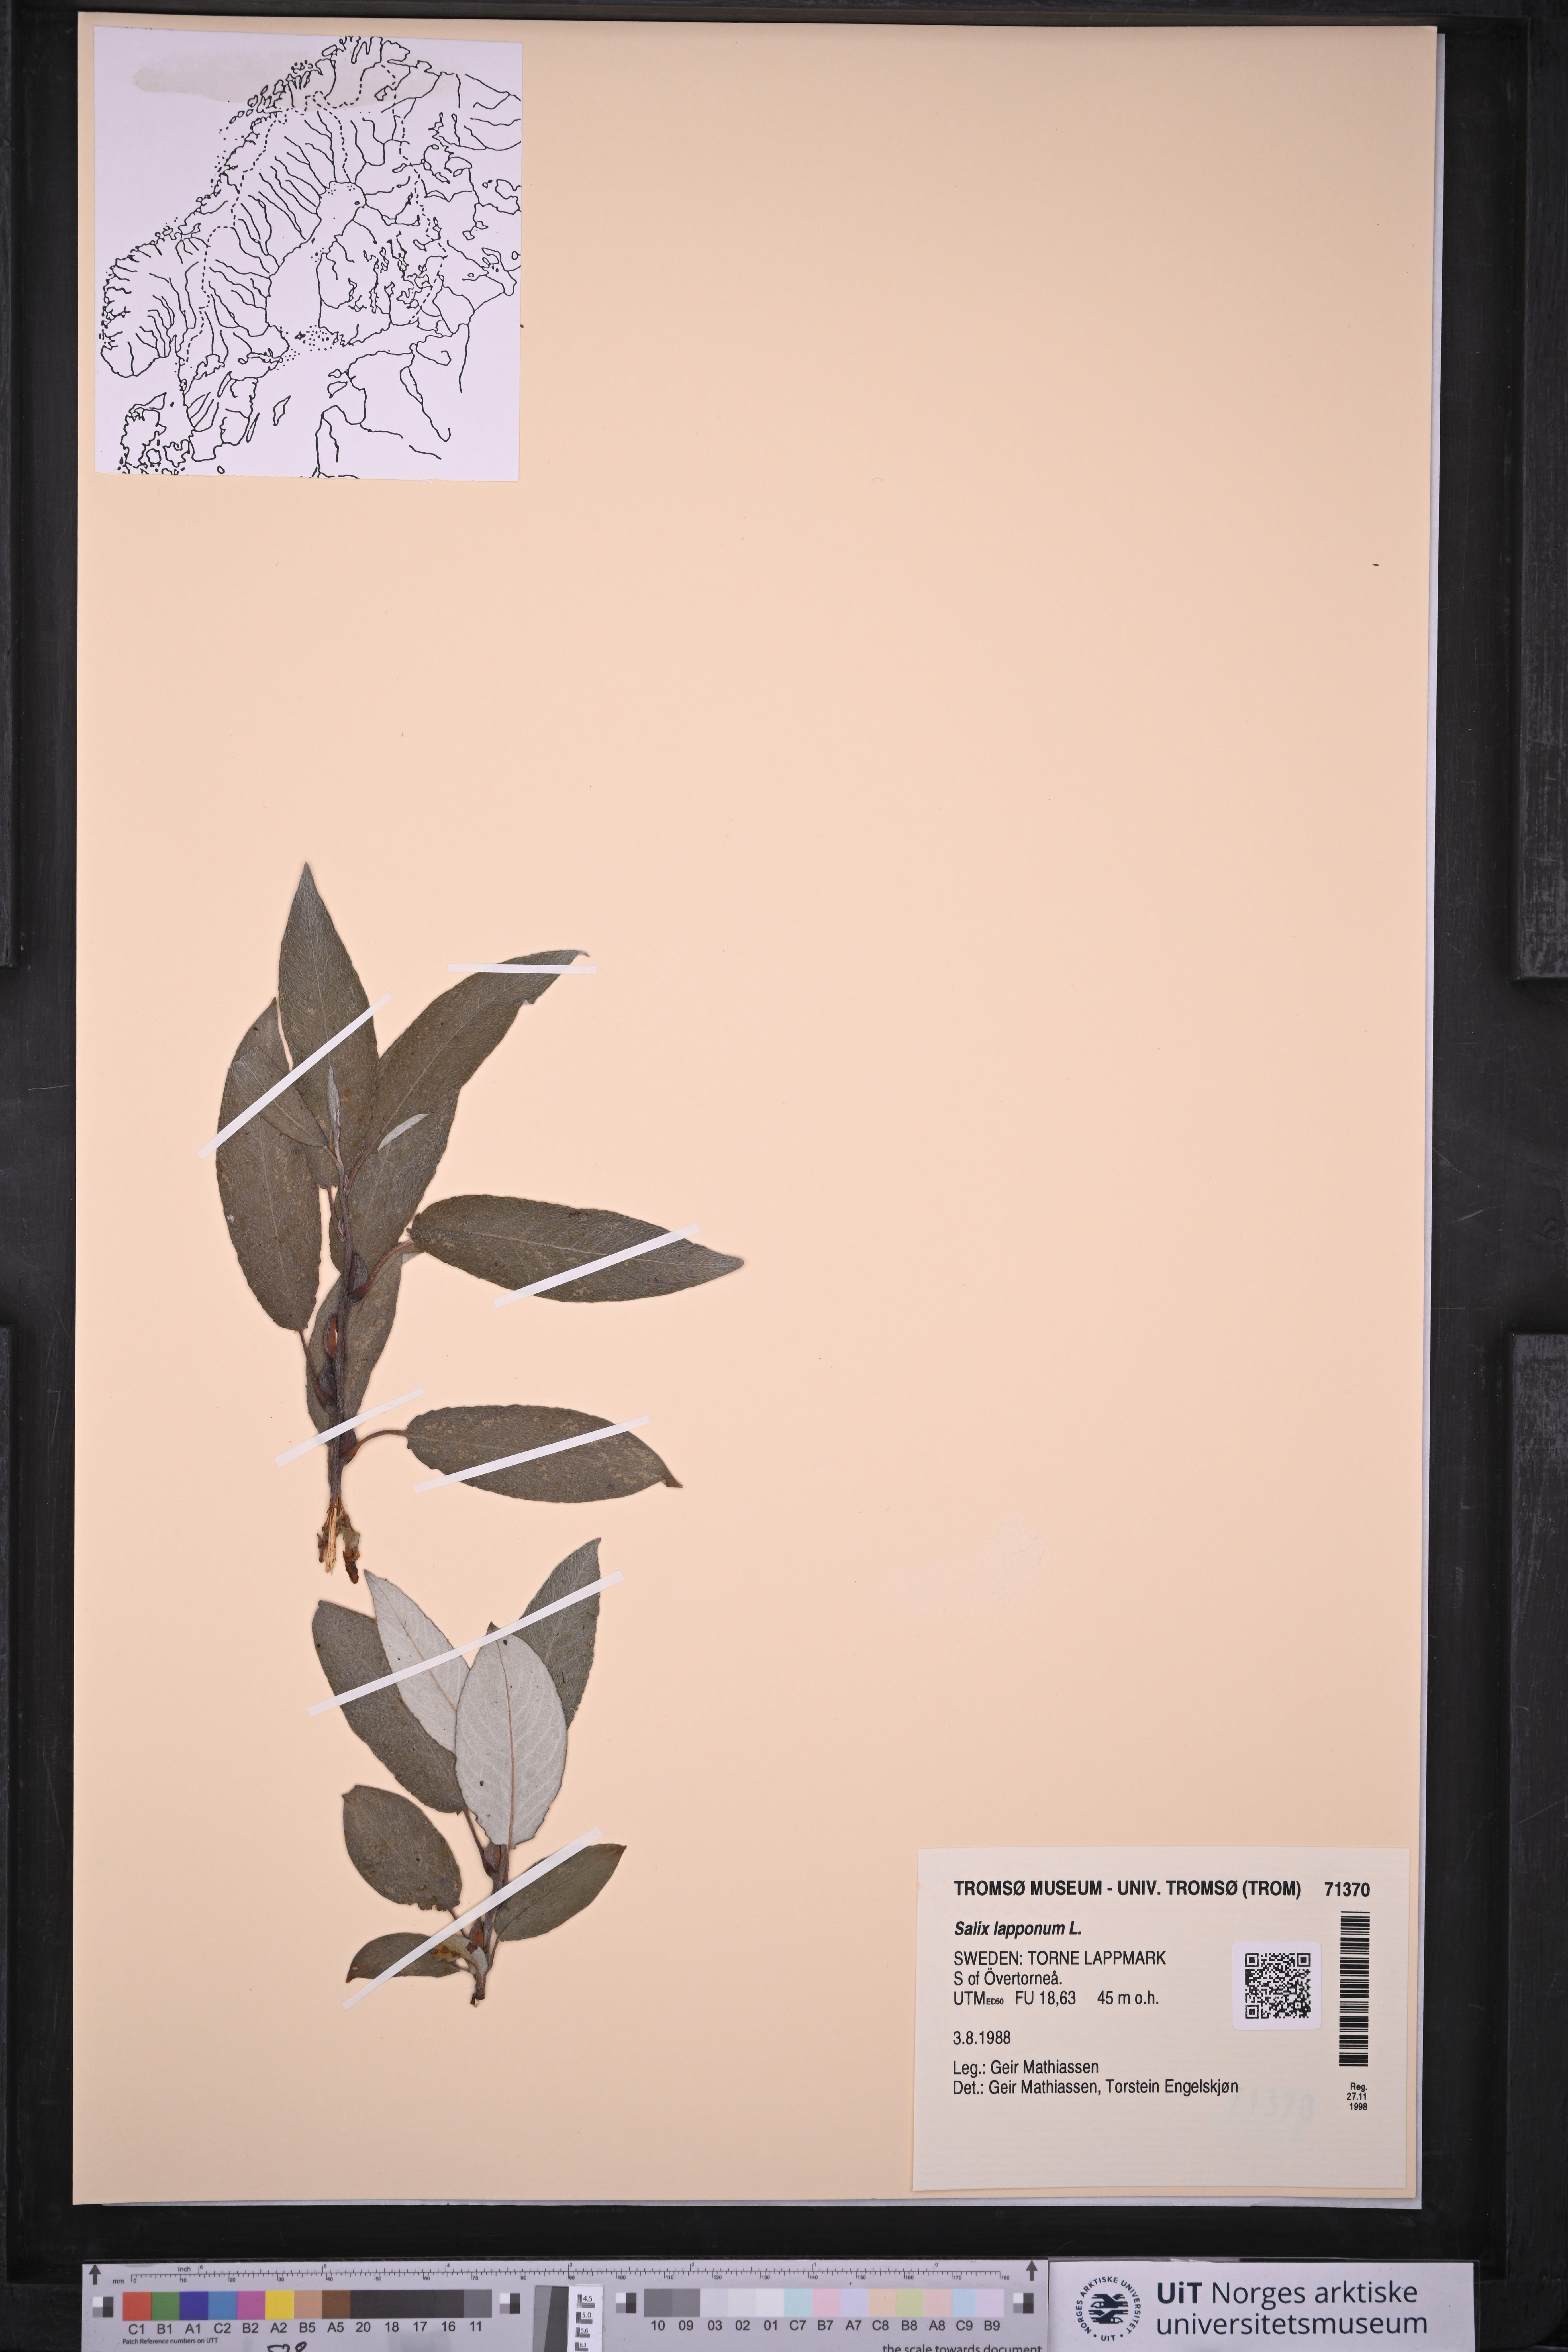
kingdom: Plantae
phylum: Tracheophyta
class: Magnoliopsida
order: Malpighiales
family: Salicaceae
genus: Salix
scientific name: Salix lapponum
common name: Downy willow
